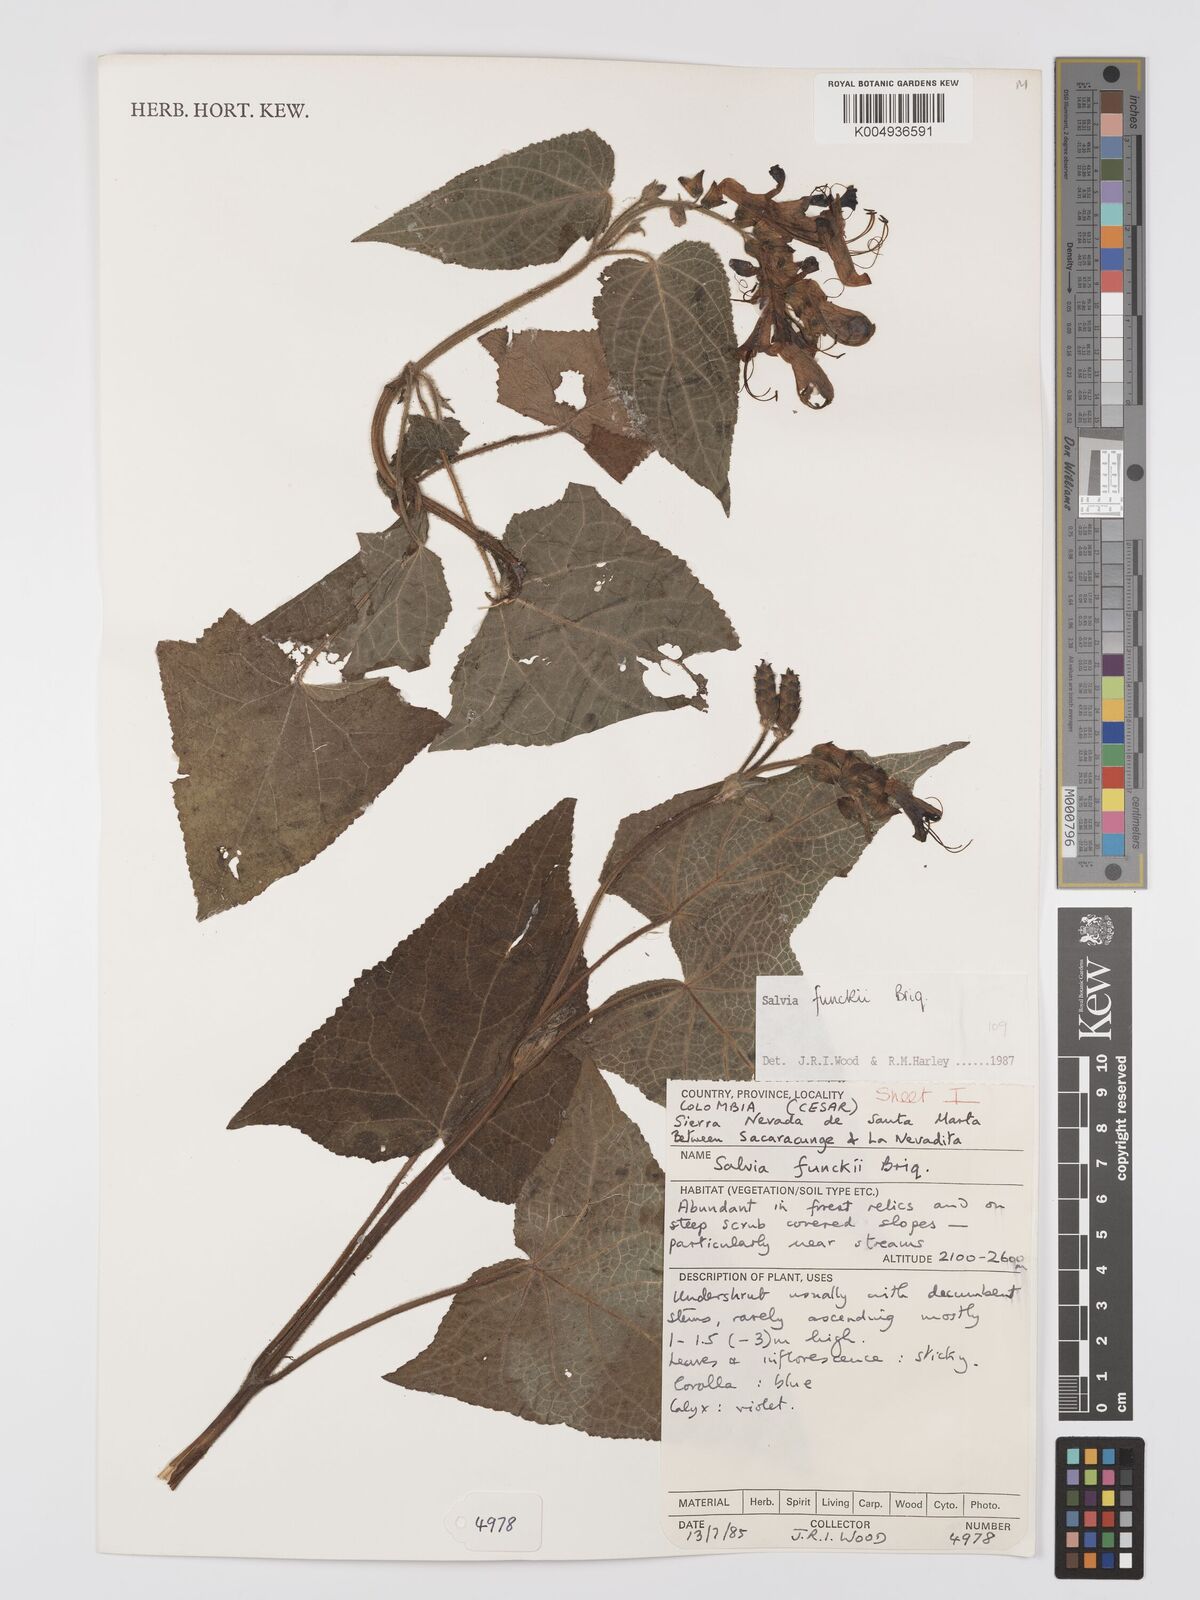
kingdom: Plantae
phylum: Tracheophyta
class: Magnoliopsida
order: Lamiales
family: Lamiaceae
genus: Salvia
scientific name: Salvia funckii
